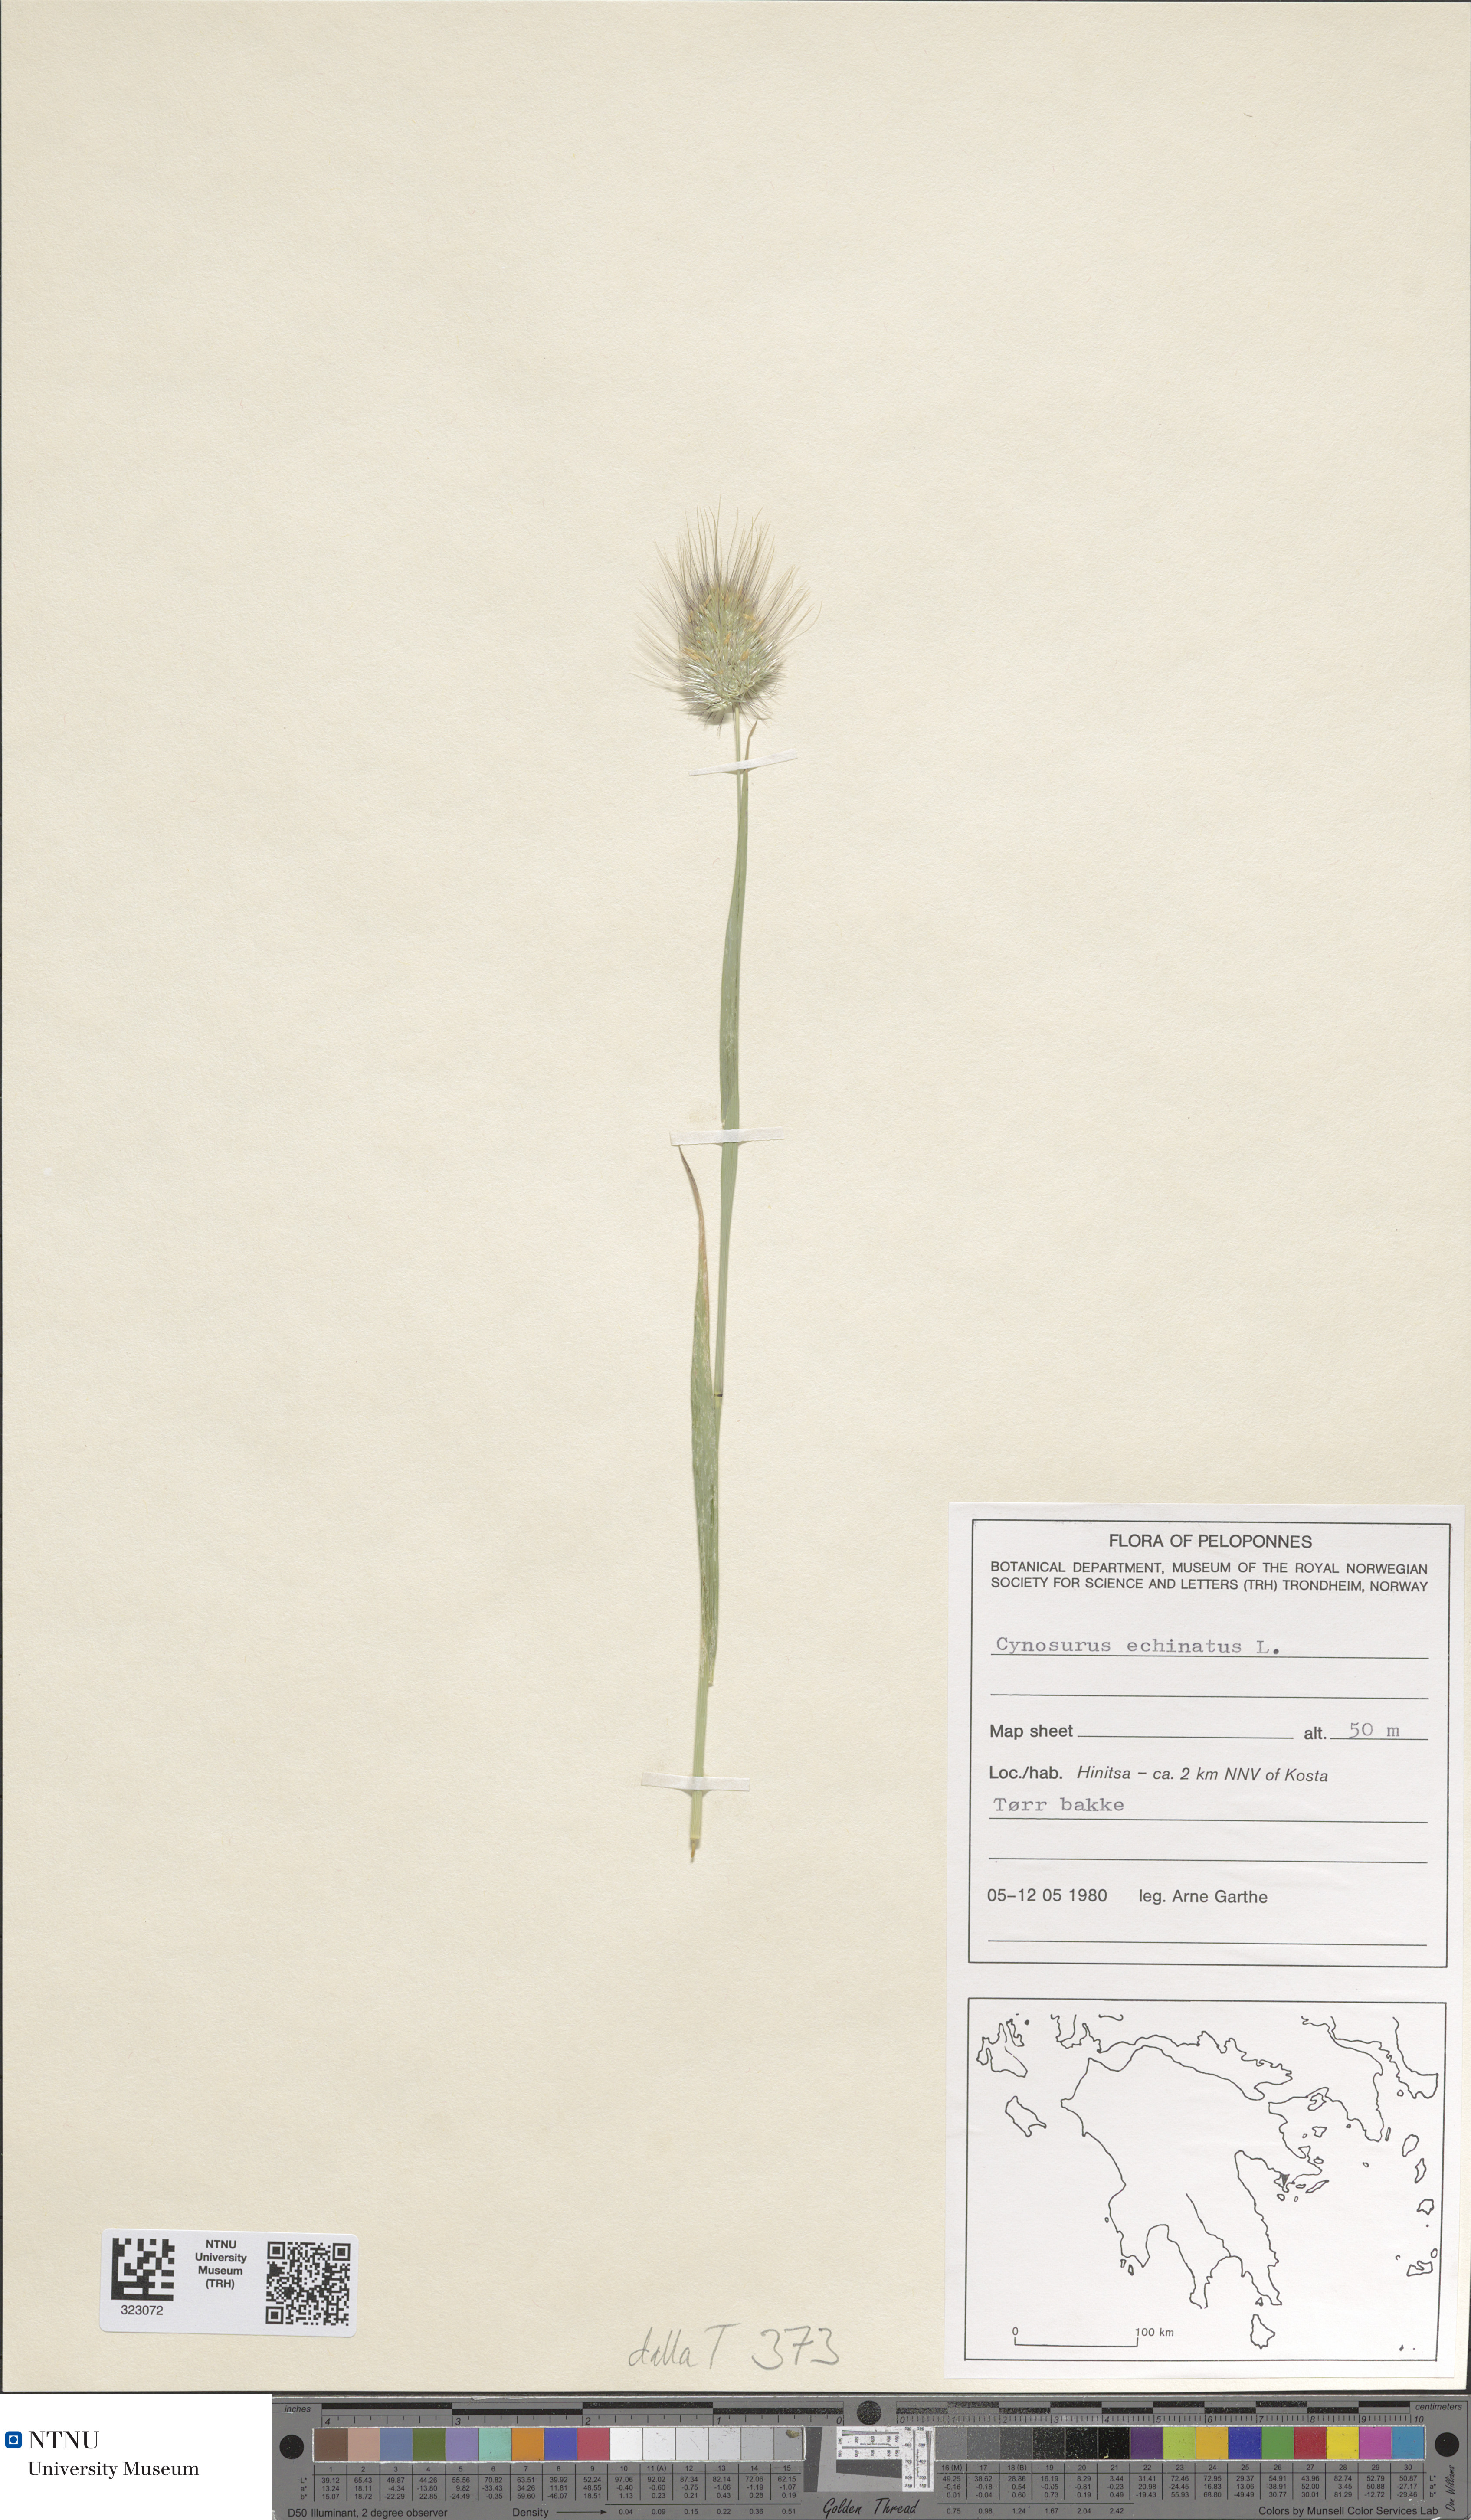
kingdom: Plantae
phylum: Tracheophyta
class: Liliopsida
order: Poales
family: Poaceae
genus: Cynosurus
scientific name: Cynosurus echinatus
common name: Rough dog's-tail
